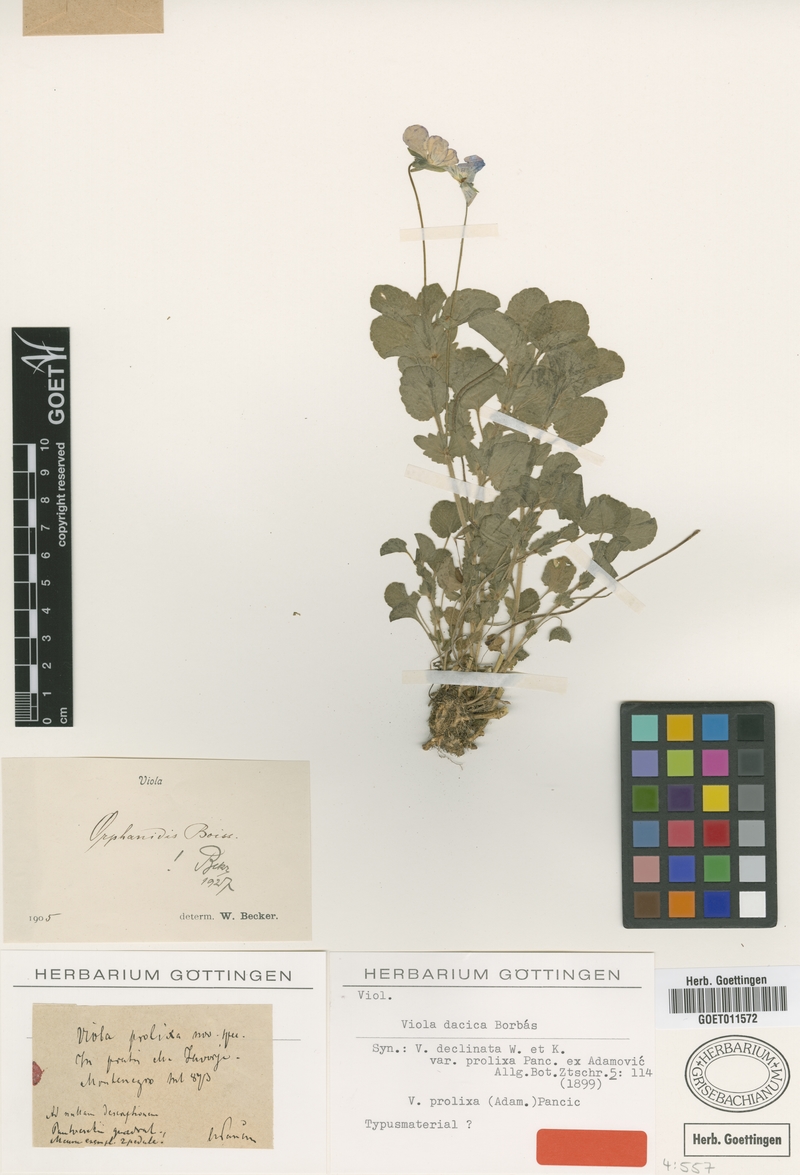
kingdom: Plantae
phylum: Tracheophyta
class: Magnoliopsida
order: Malpighiales
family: Violaceae
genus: Viola
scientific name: Viola dacica
